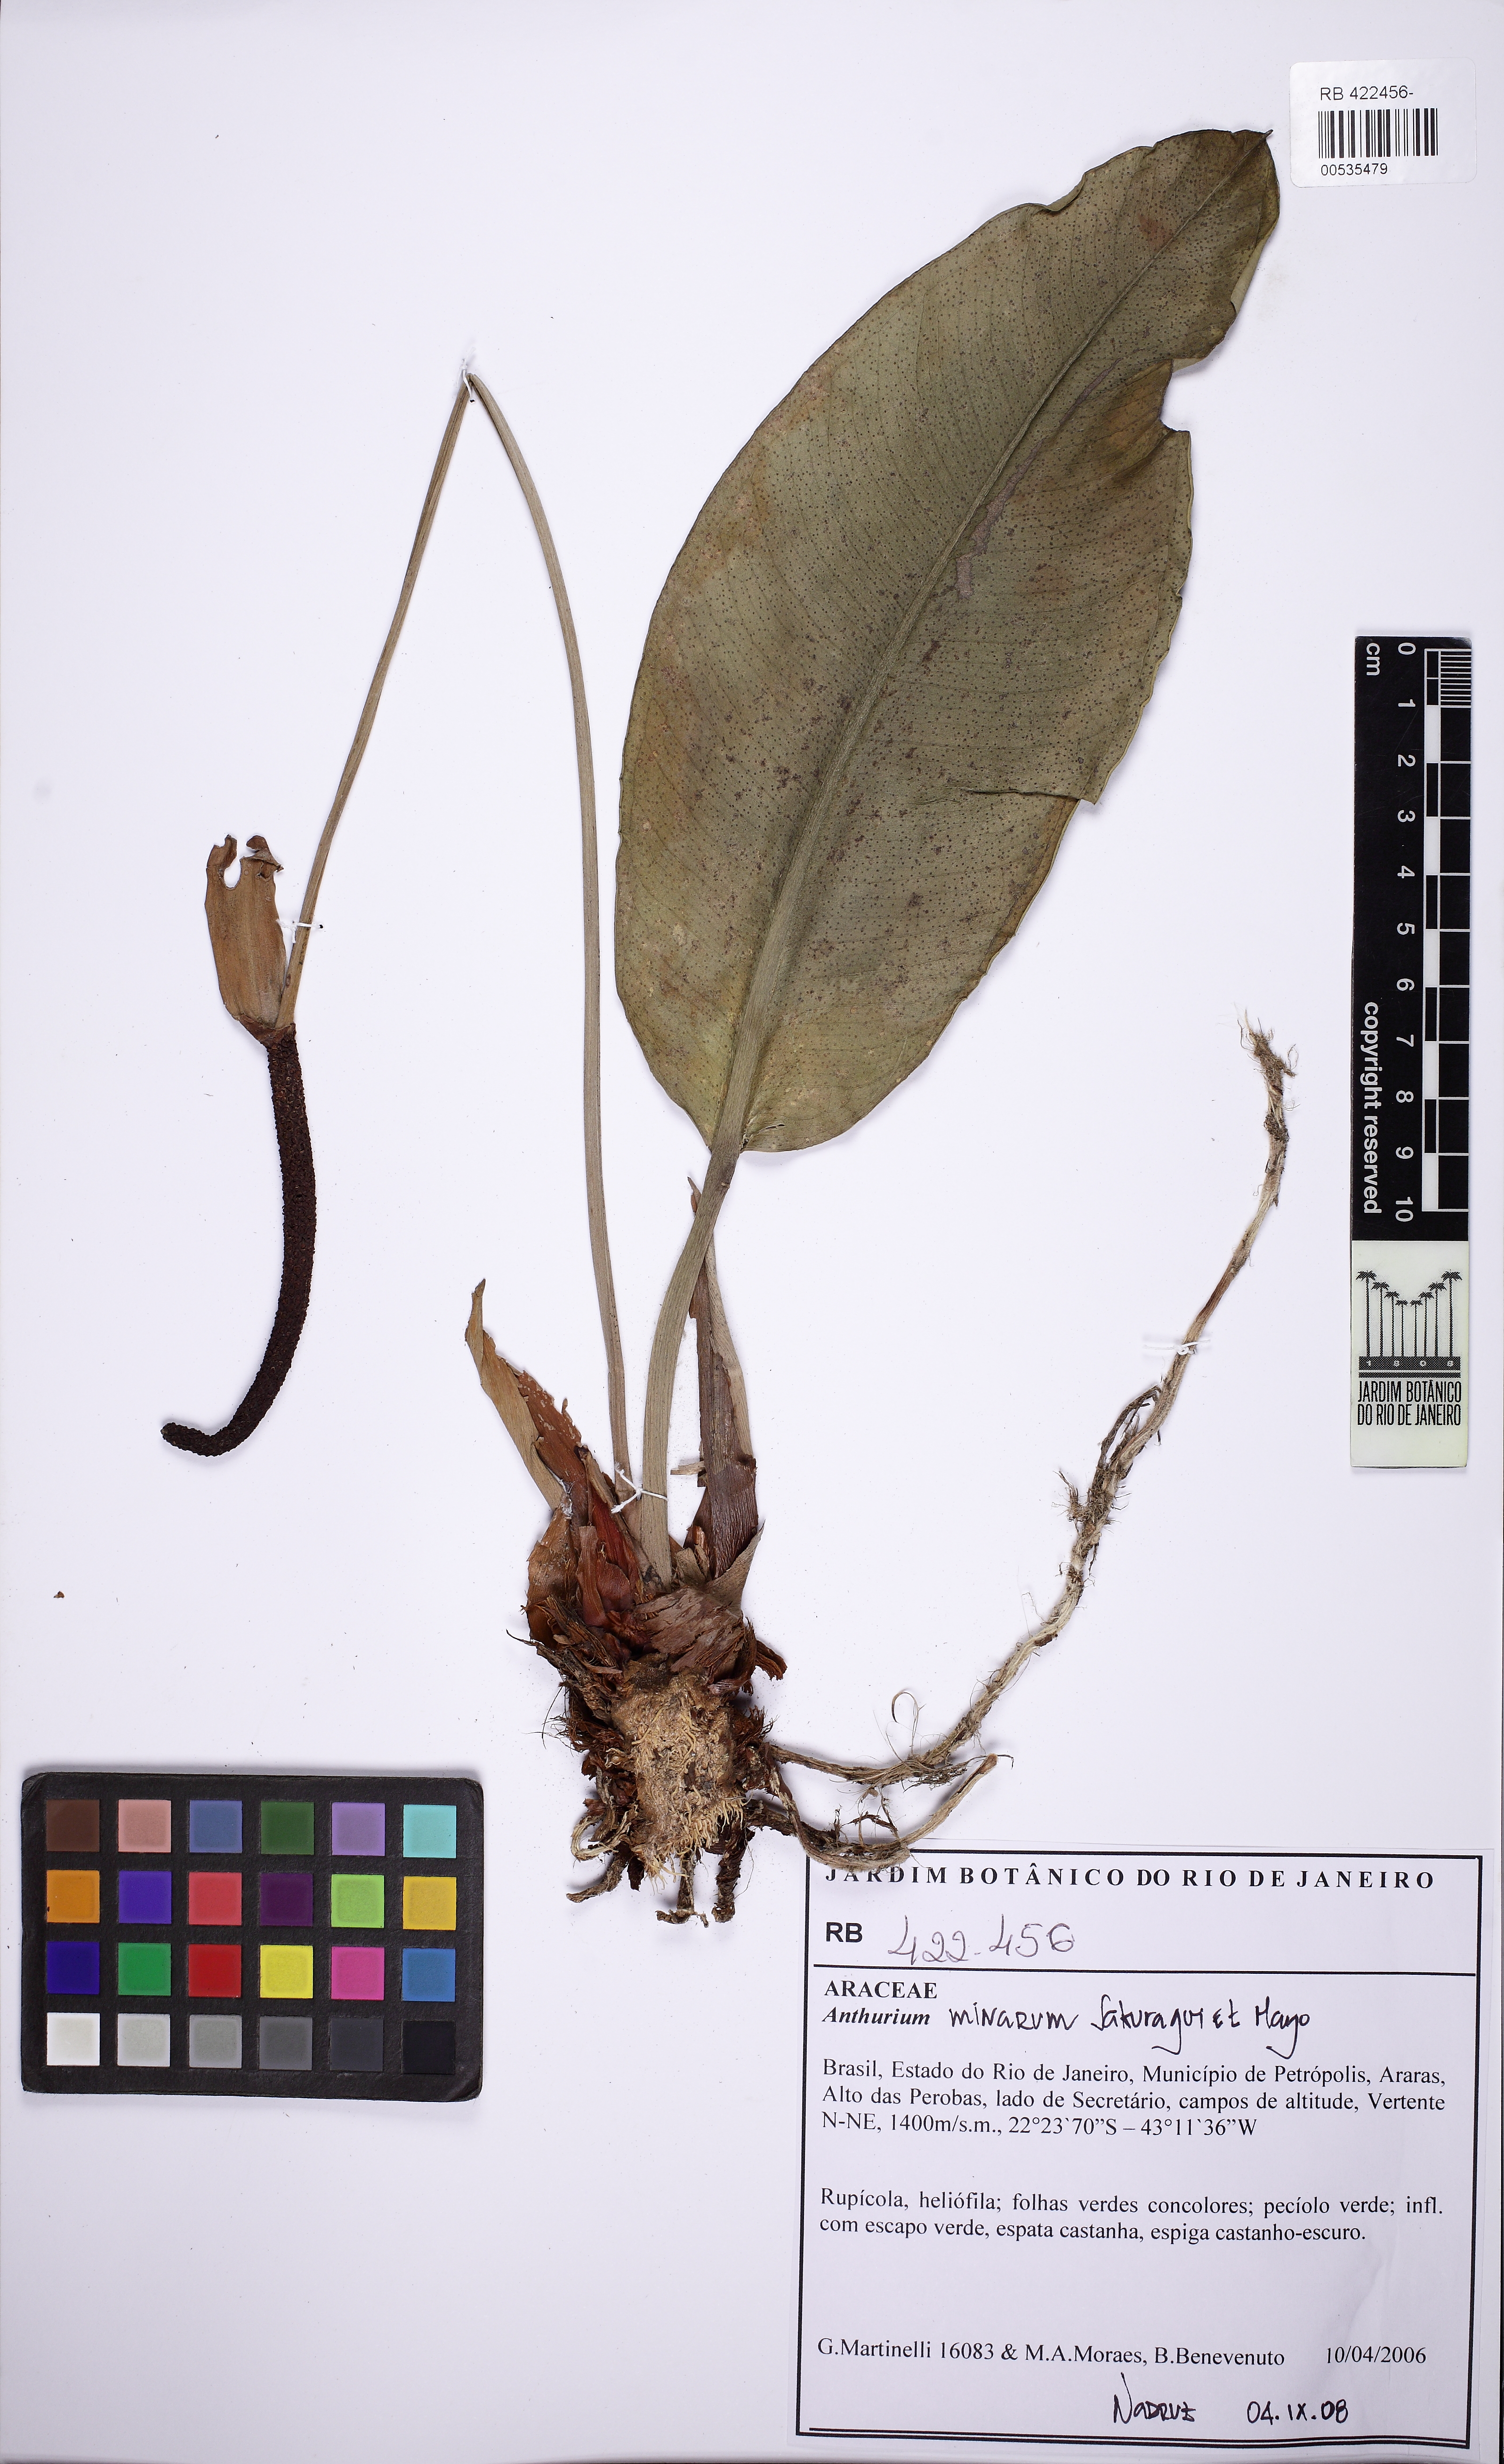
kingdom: Plantae
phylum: Tracheophyta
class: Liliopsida
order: Alismatales
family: Araceae
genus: Anthurium
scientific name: Anthurium minarum
